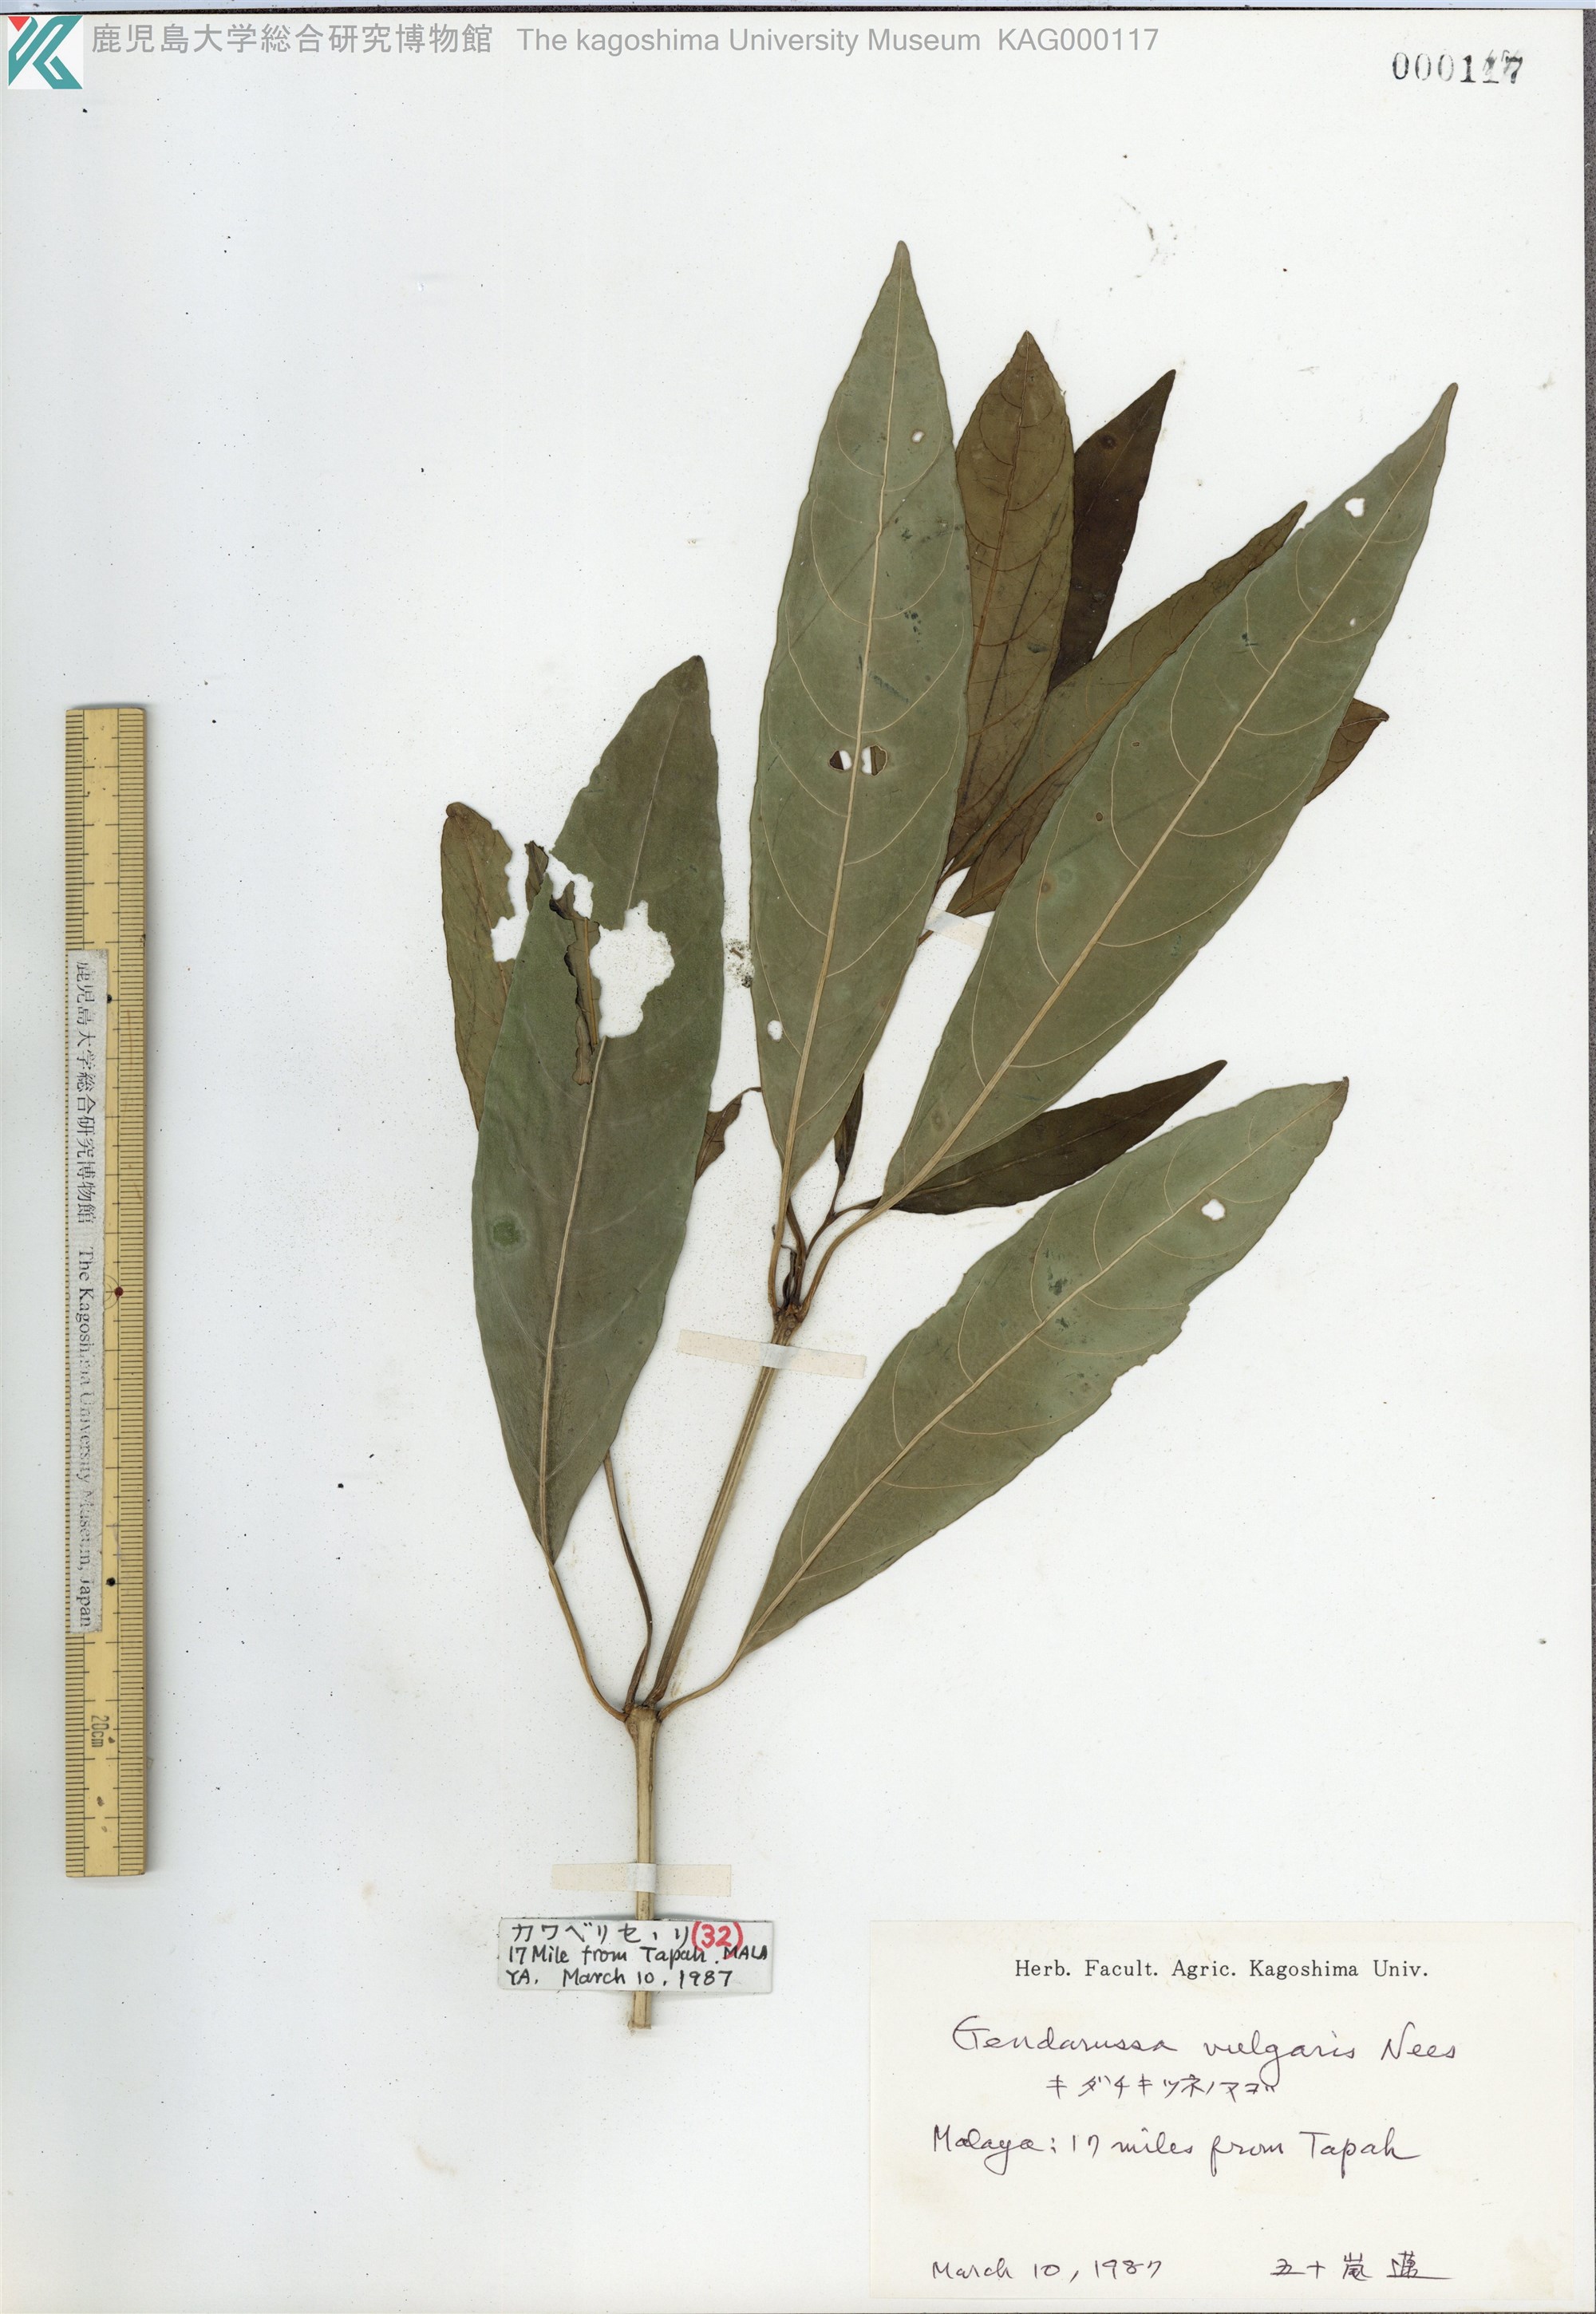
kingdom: Plantae
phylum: Tracheophyta
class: Magnoliopsida
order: Lamiales
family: Acanthaceae
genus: Justicia
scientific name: Justicia gendarussa
